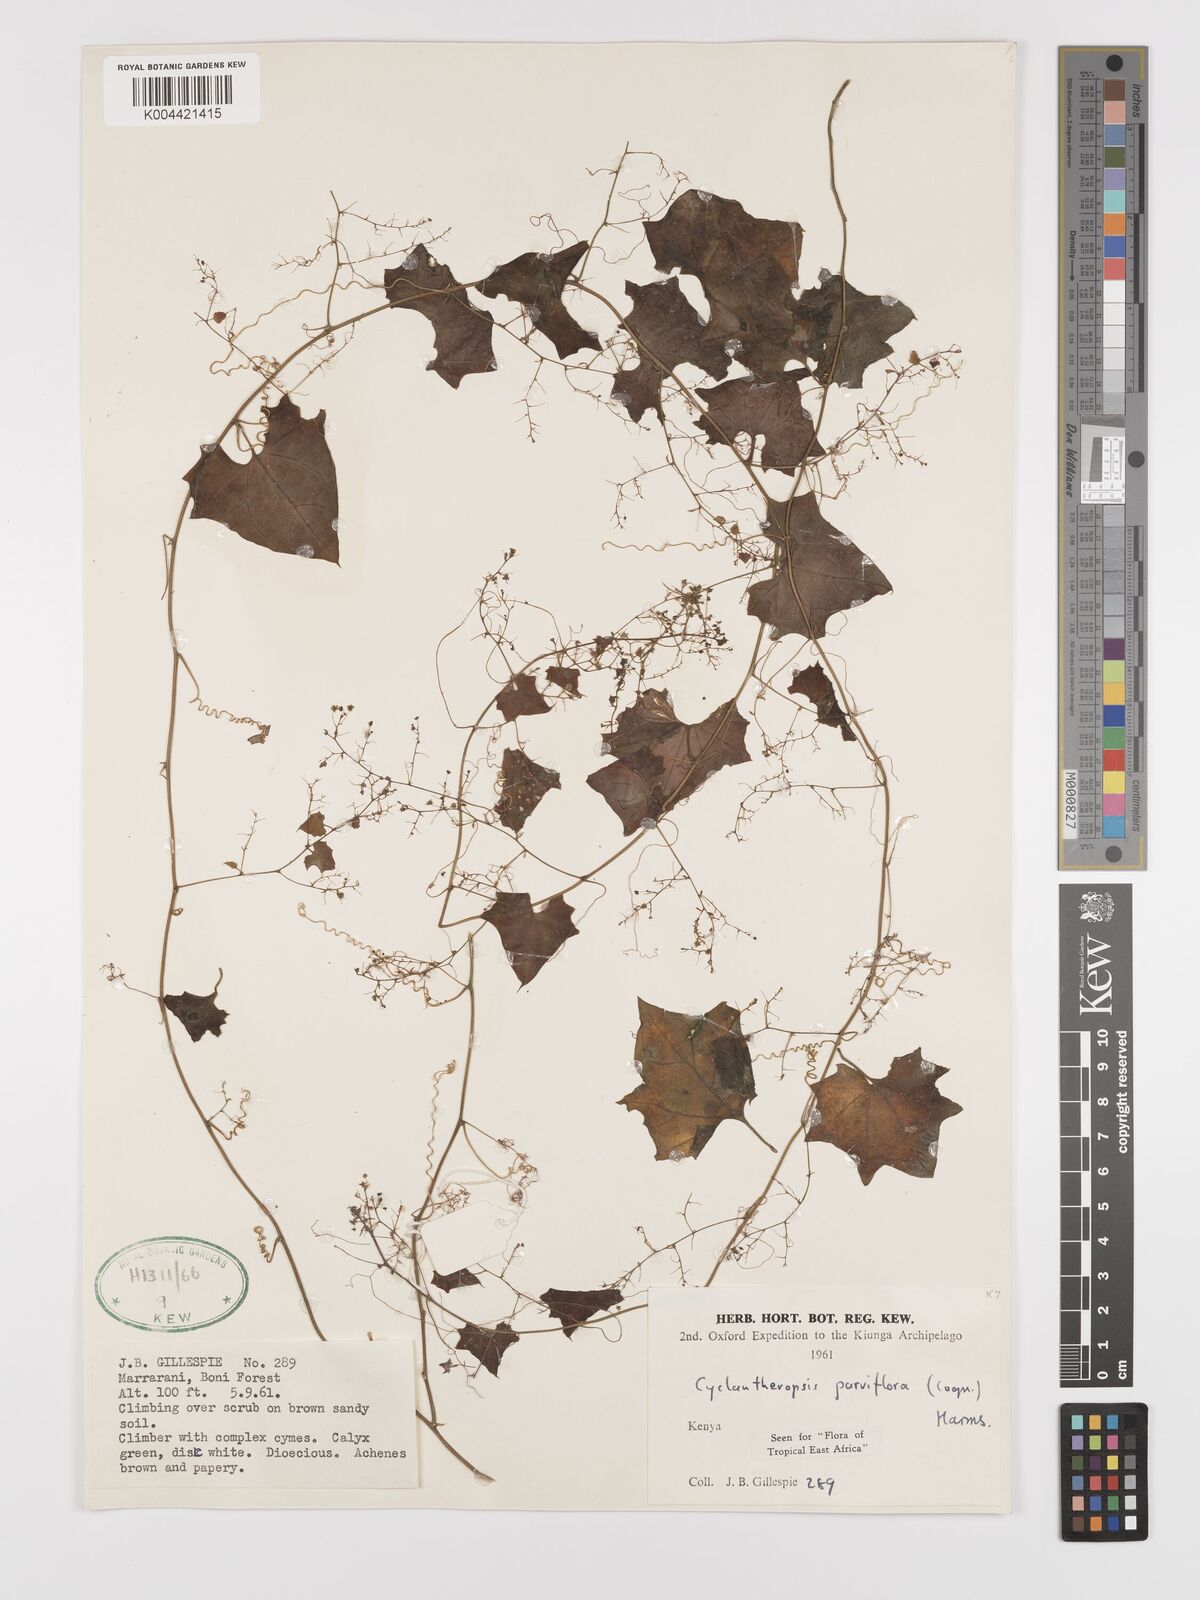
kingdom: Plantae
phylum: Tracheophyta
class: Magnoliopsida
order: Cucurbitales
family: Cucurbitaceae
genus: Cyclantheropsis
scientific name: Cyclantheropsis parviflora
